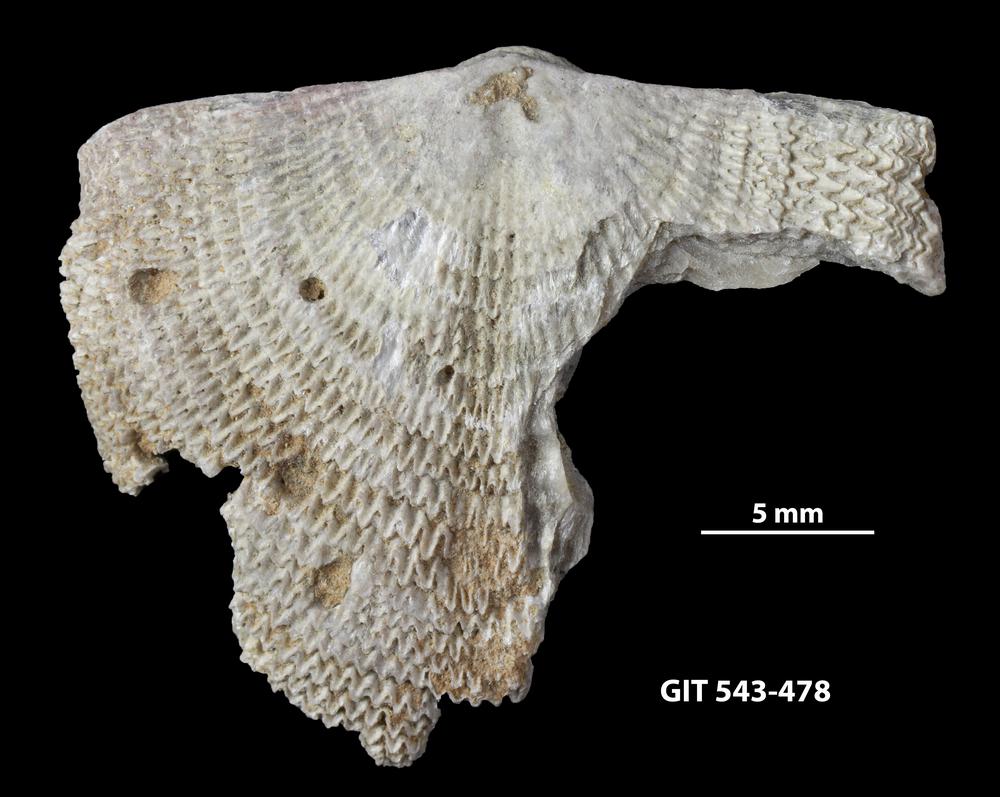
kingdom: Animalia
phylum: Brachiopoda
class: Rhynchonellata
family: Clitambonitidae
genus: Clitambonites
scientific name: Clitambonites squamatus
